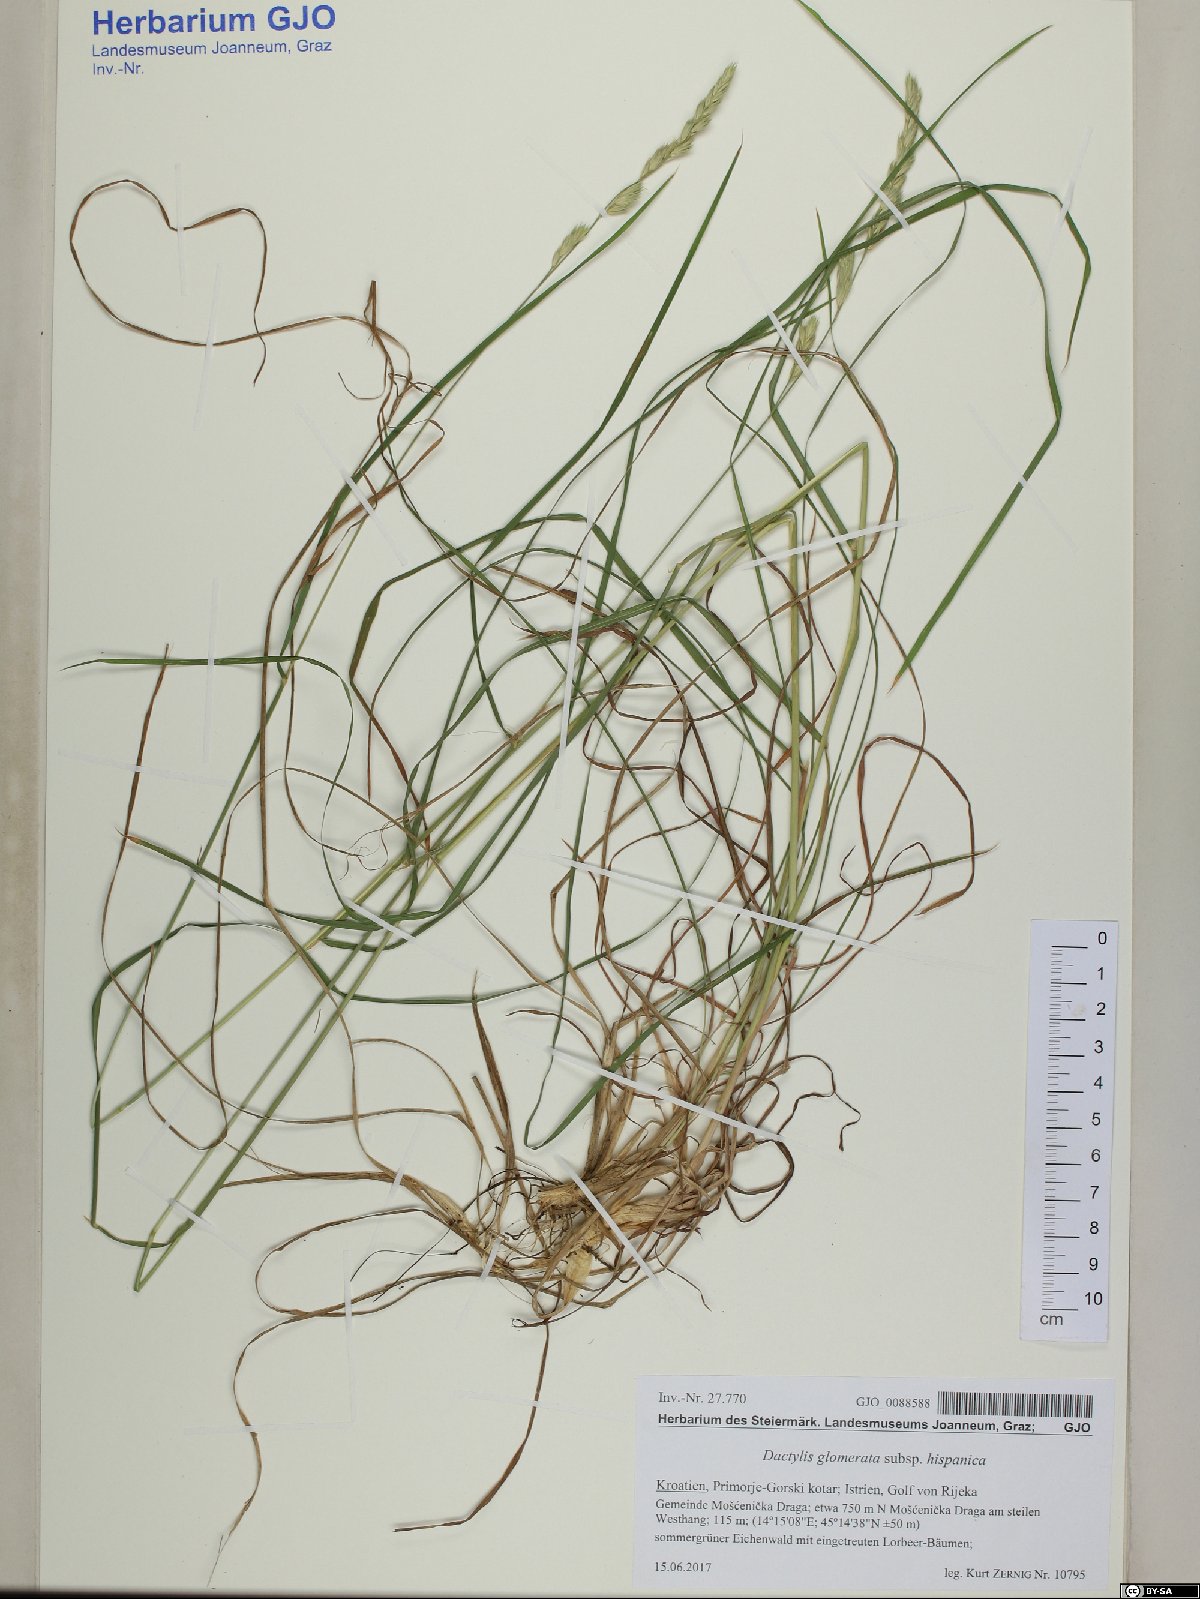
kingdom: Plantae
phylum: Tracheophyta
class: Liliopsida
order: Poales
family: Poaceae
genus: Dactylis
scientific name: Dactylis glomerata
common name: Orchardgrass
